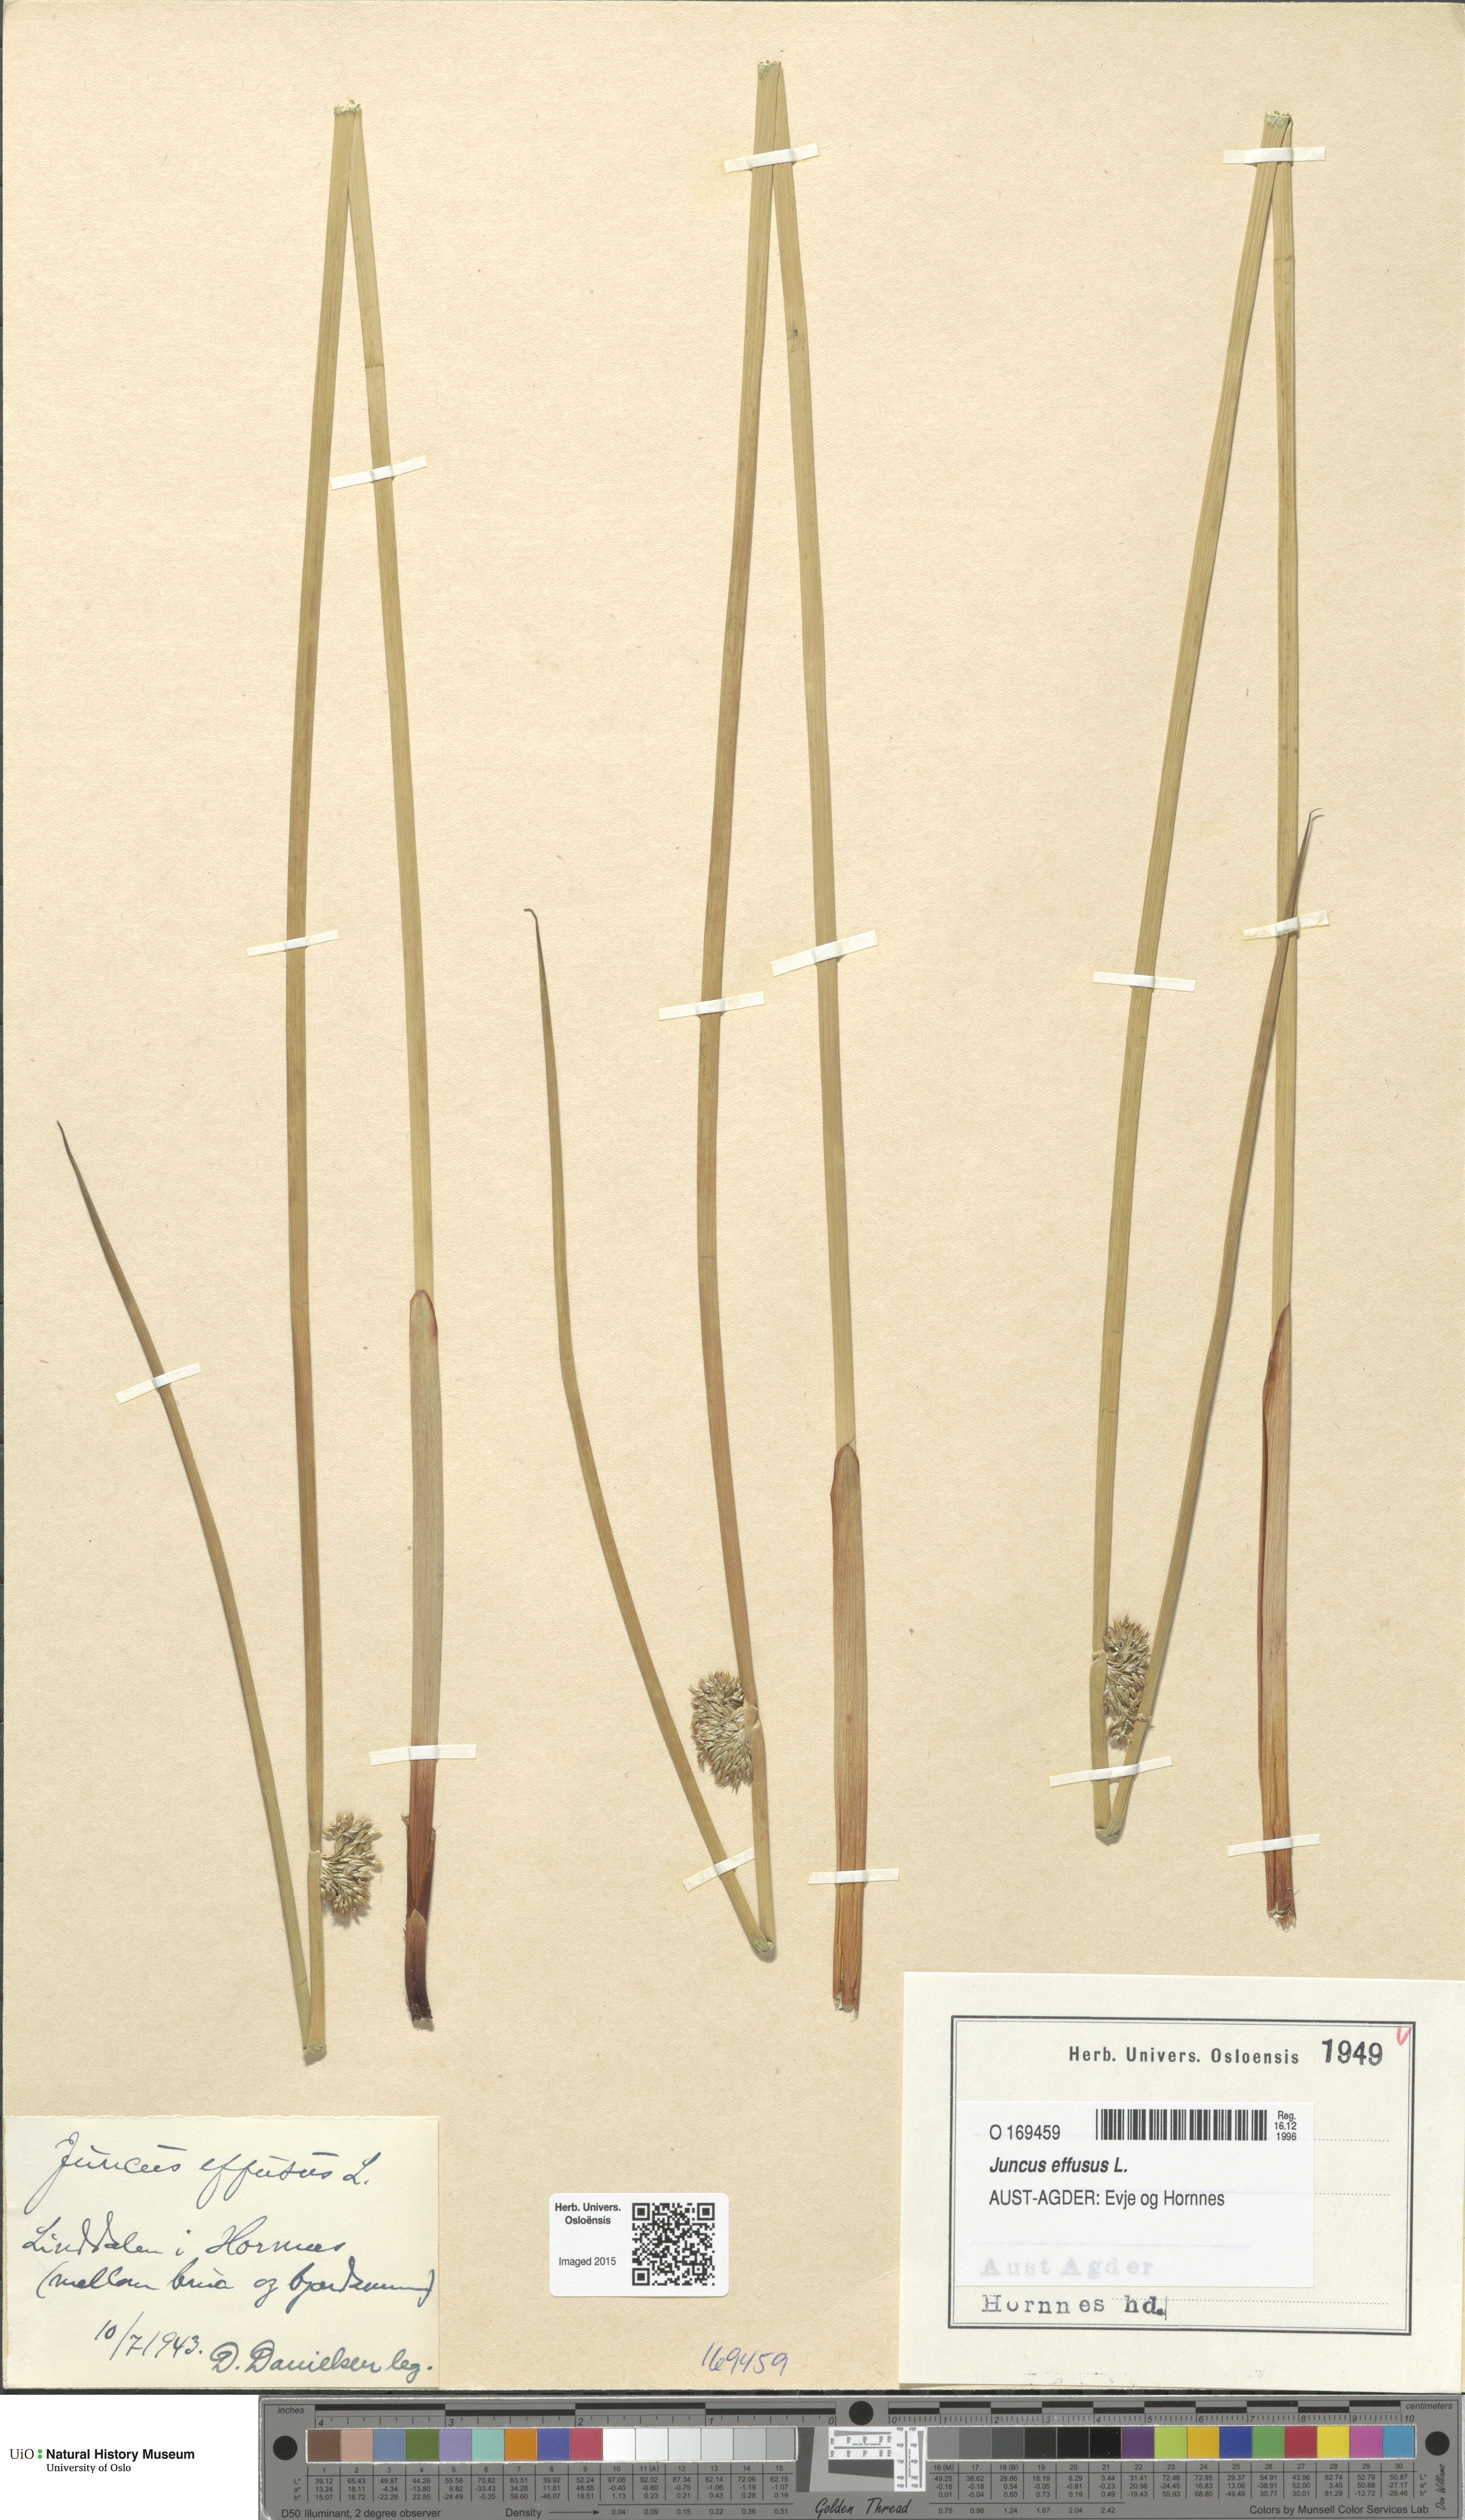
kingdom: Plantae
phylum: Tracheophyta
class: Liliopsida
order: Poales
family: Juncaceae
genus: Juncus
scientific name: Juncus effusus
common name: Soft rush
